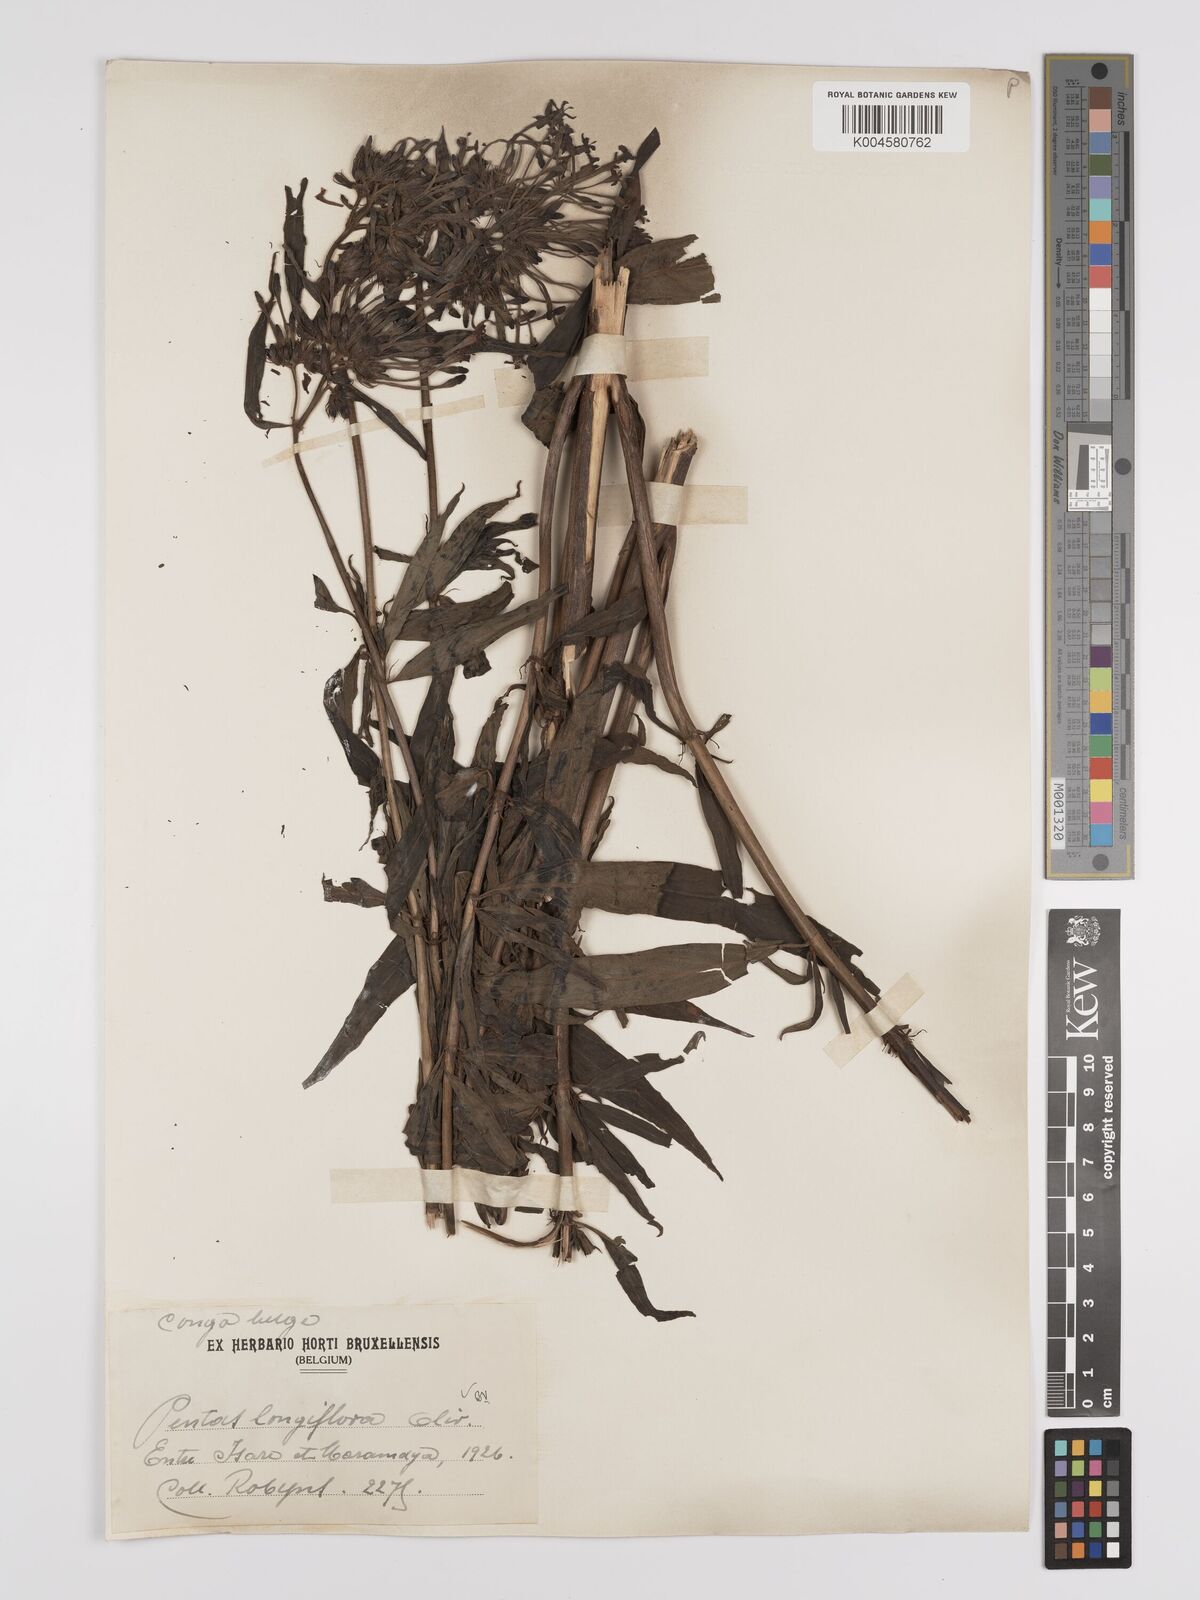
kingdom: Plantae
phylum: Tracheophyta
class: Magnoliopsida
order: Gentianales
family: Rubiaceae
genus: Dolichopentas
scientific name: Dolichopentas longiflora
